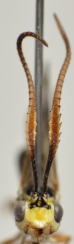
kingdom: Animalia
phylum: Arthropoda
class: Insecta
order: Hymenoptera
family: Ichneumonidae
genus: Euceros
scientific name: Euceros serricornis
